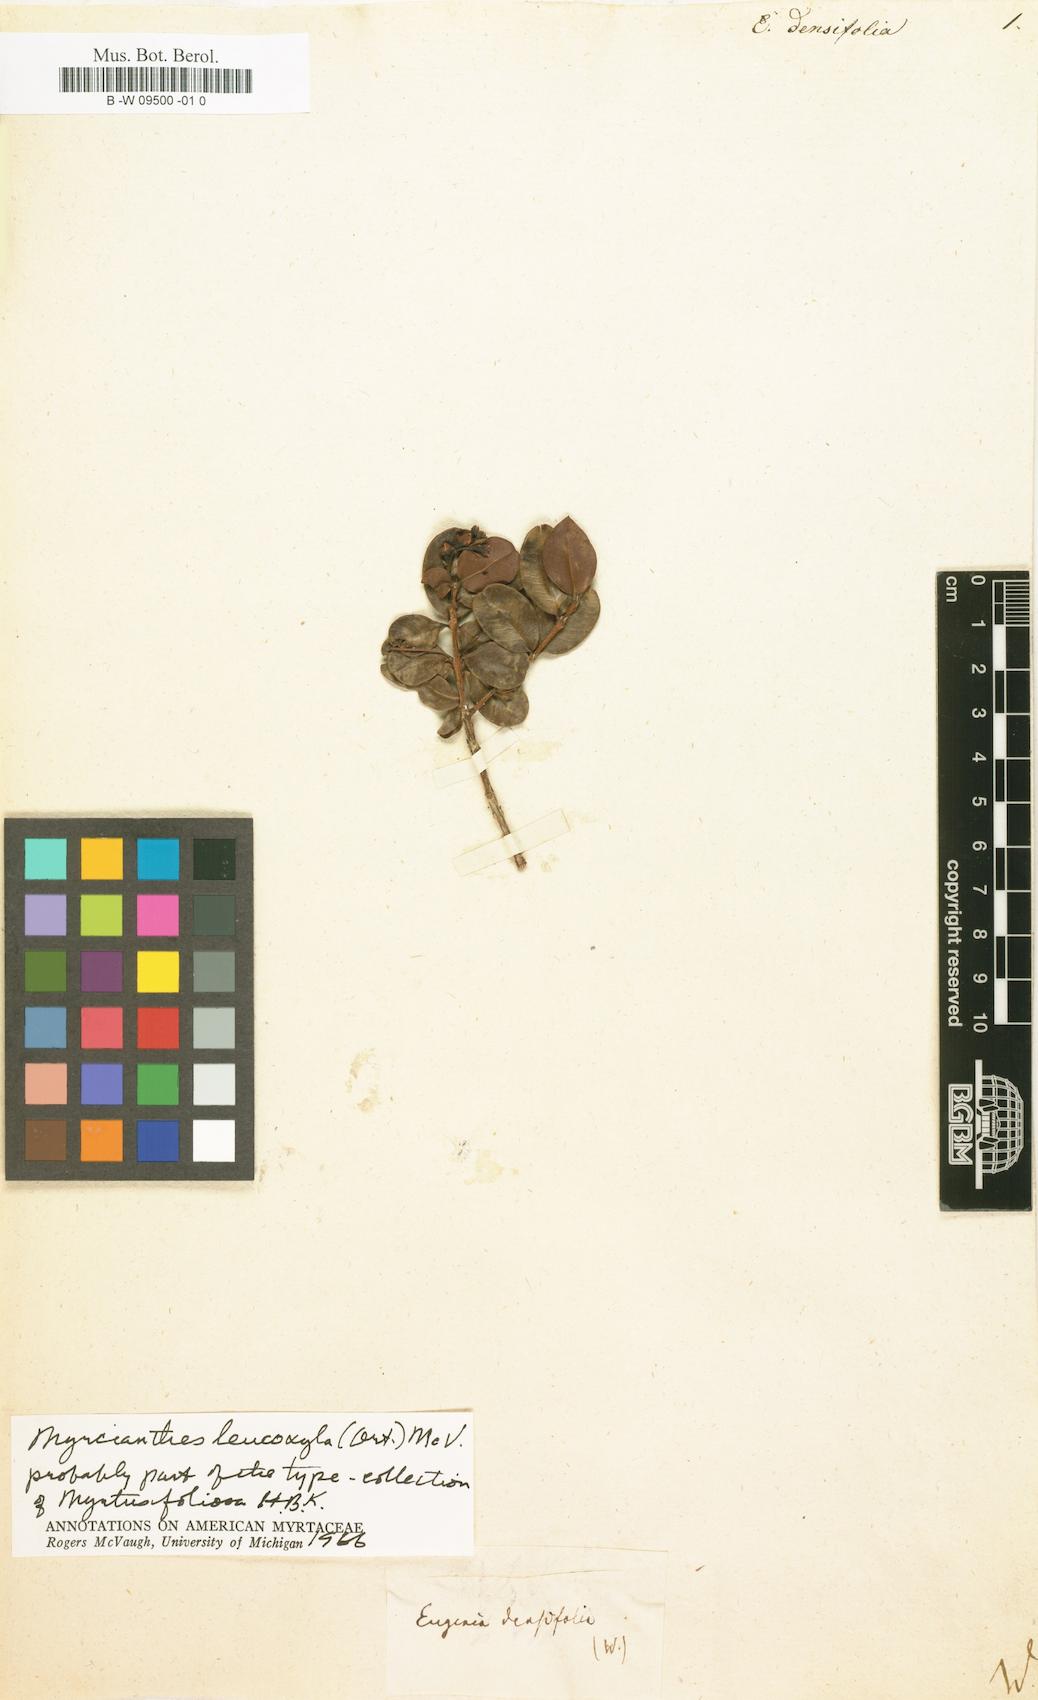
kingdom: Plantae
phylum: Tracheophyta
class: Magnoliopsida
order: Myrtales
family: Myrtaceae
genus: Eugenia
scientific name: Eugenia densiflora
